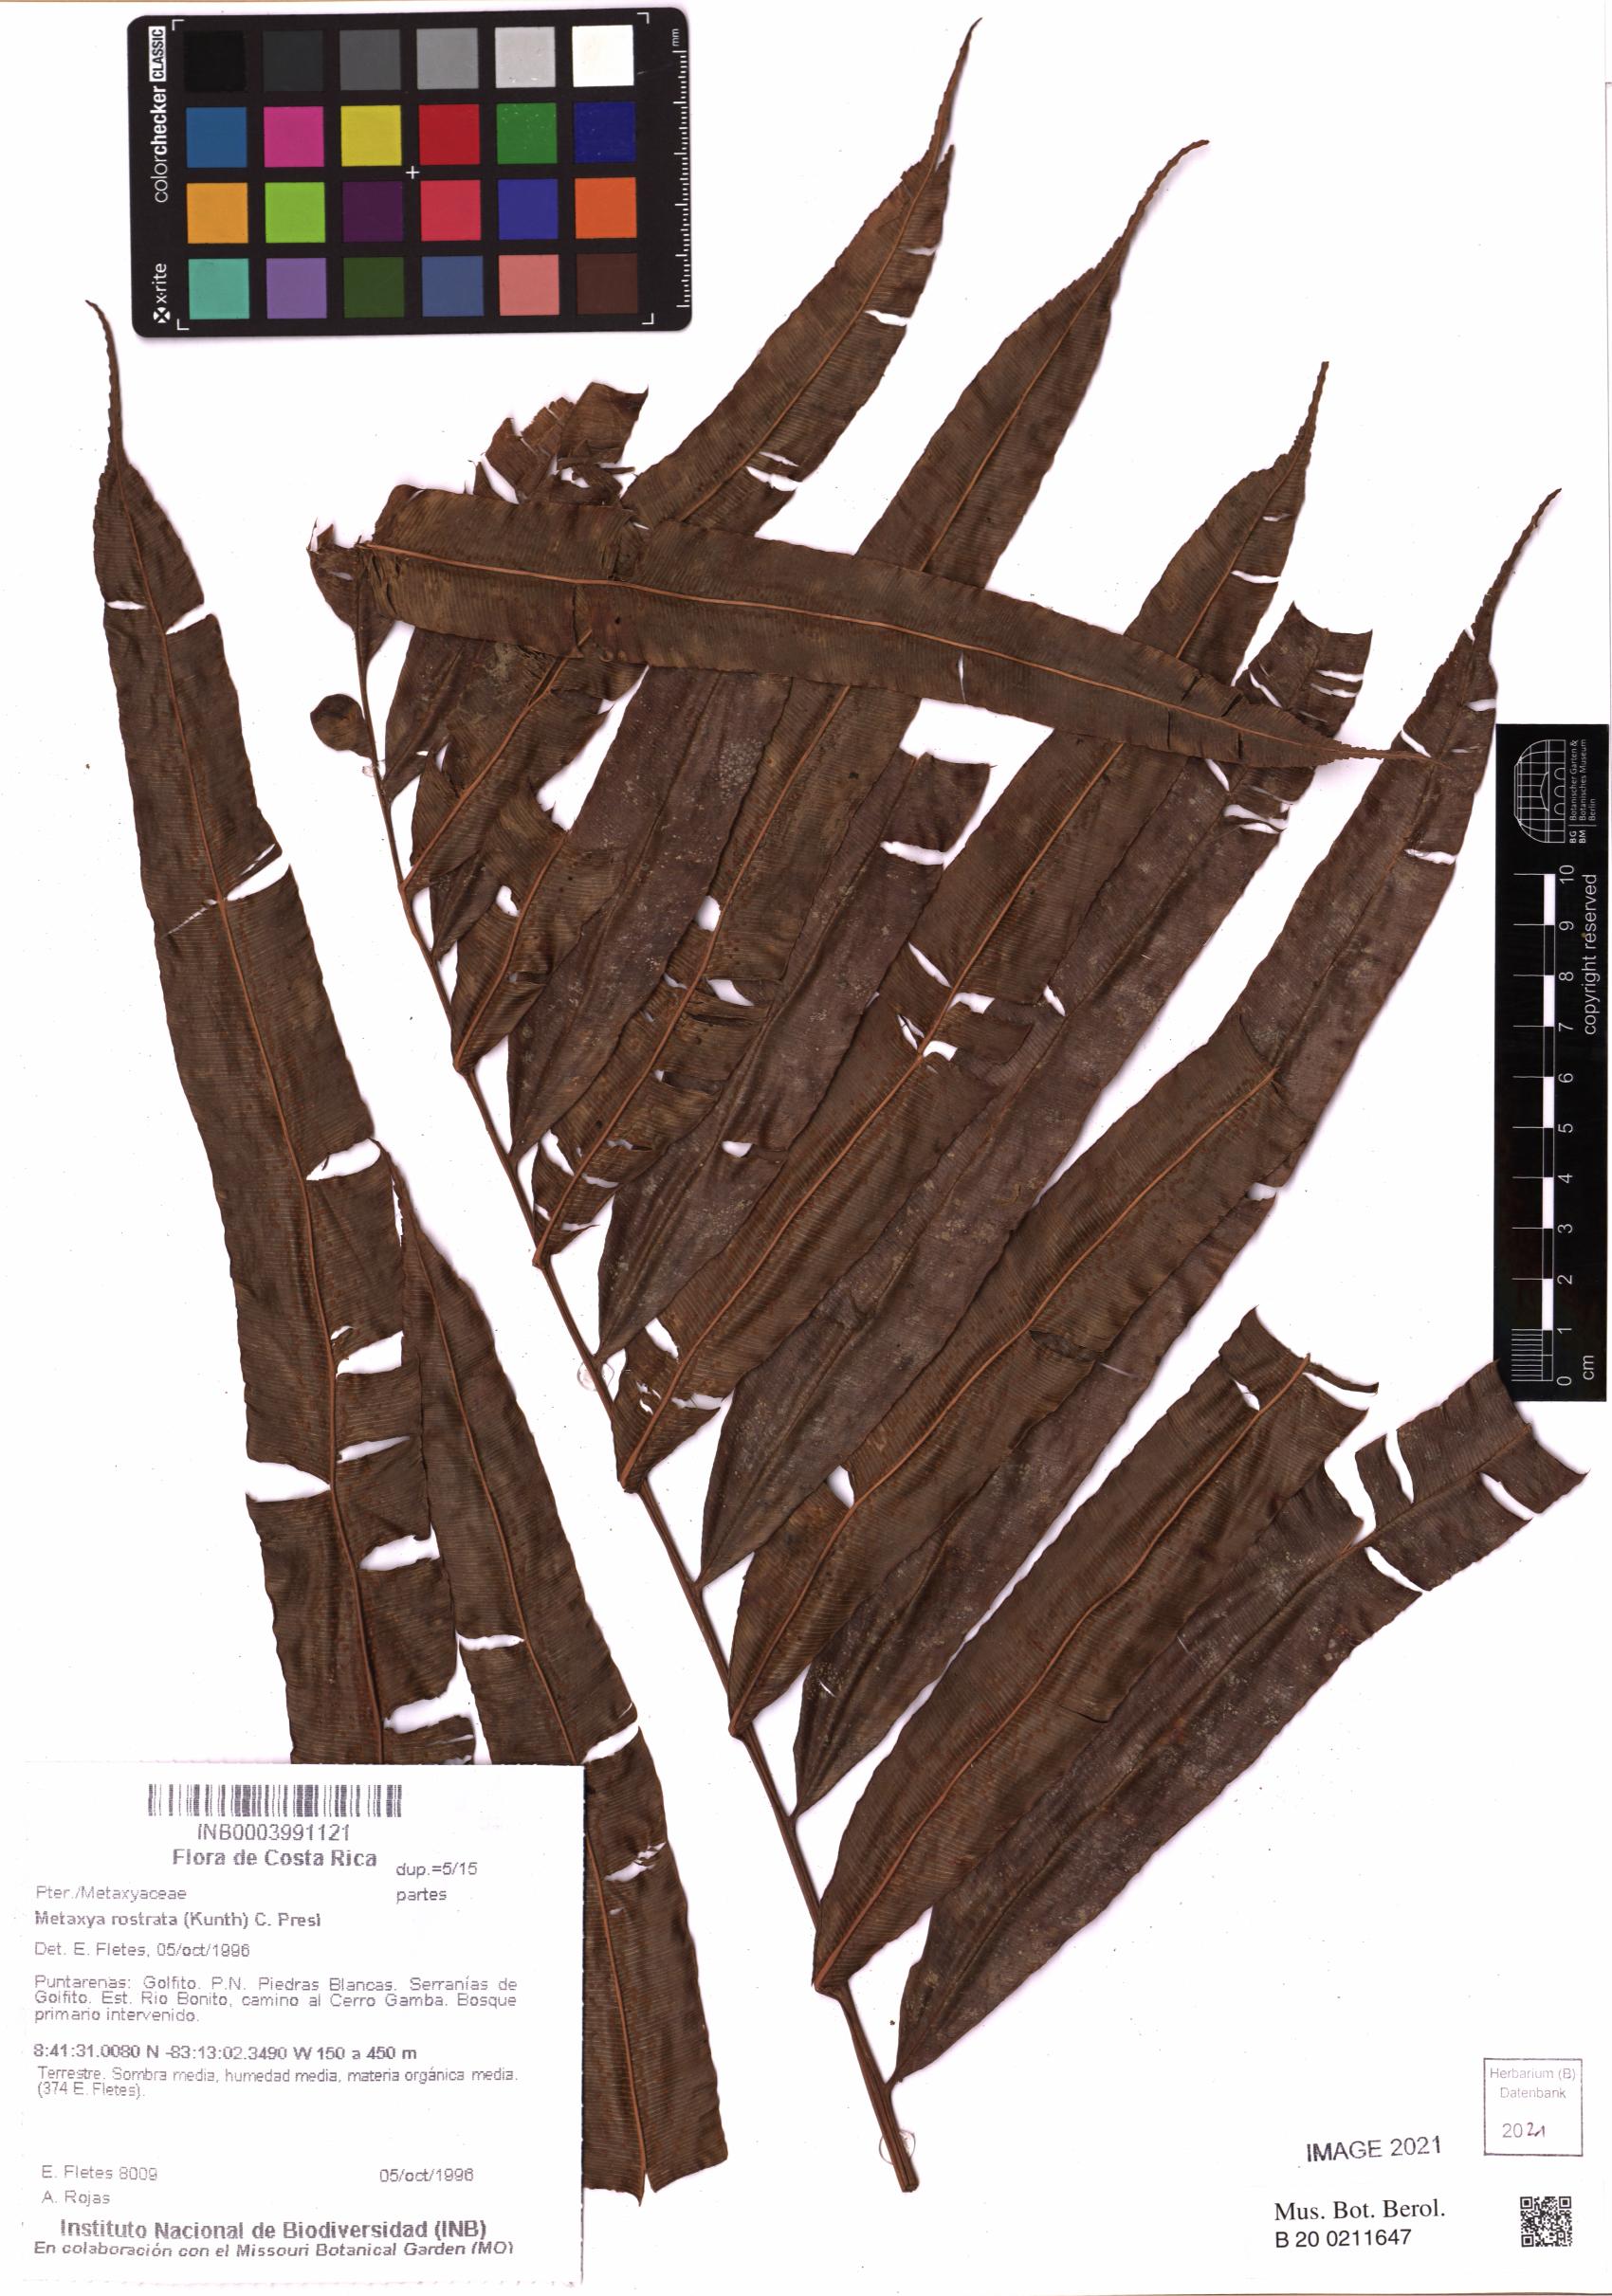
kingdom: Plantae
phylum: Tracheophyta
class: Polypodiopsida
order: Cyatheales
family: Metaxyaceae
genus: Metaxya
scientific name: Metaxya rostrata
